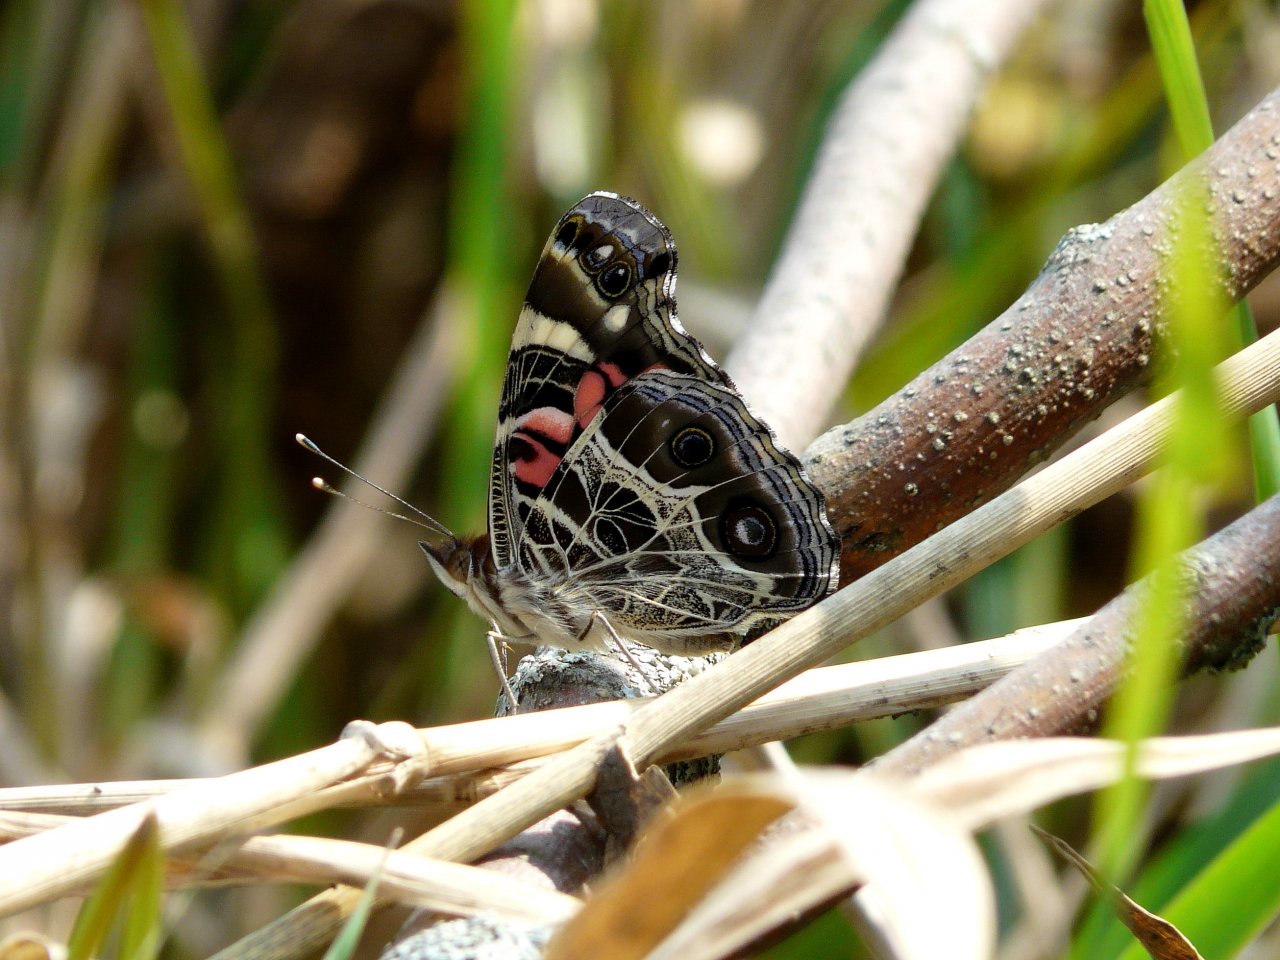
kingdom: Animalia
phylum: Arthropoda
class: Insecta
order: Lepidoptera
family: Nymphalidae
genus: Vanessa
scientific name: Vanessa virginiensis
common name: American Lady
